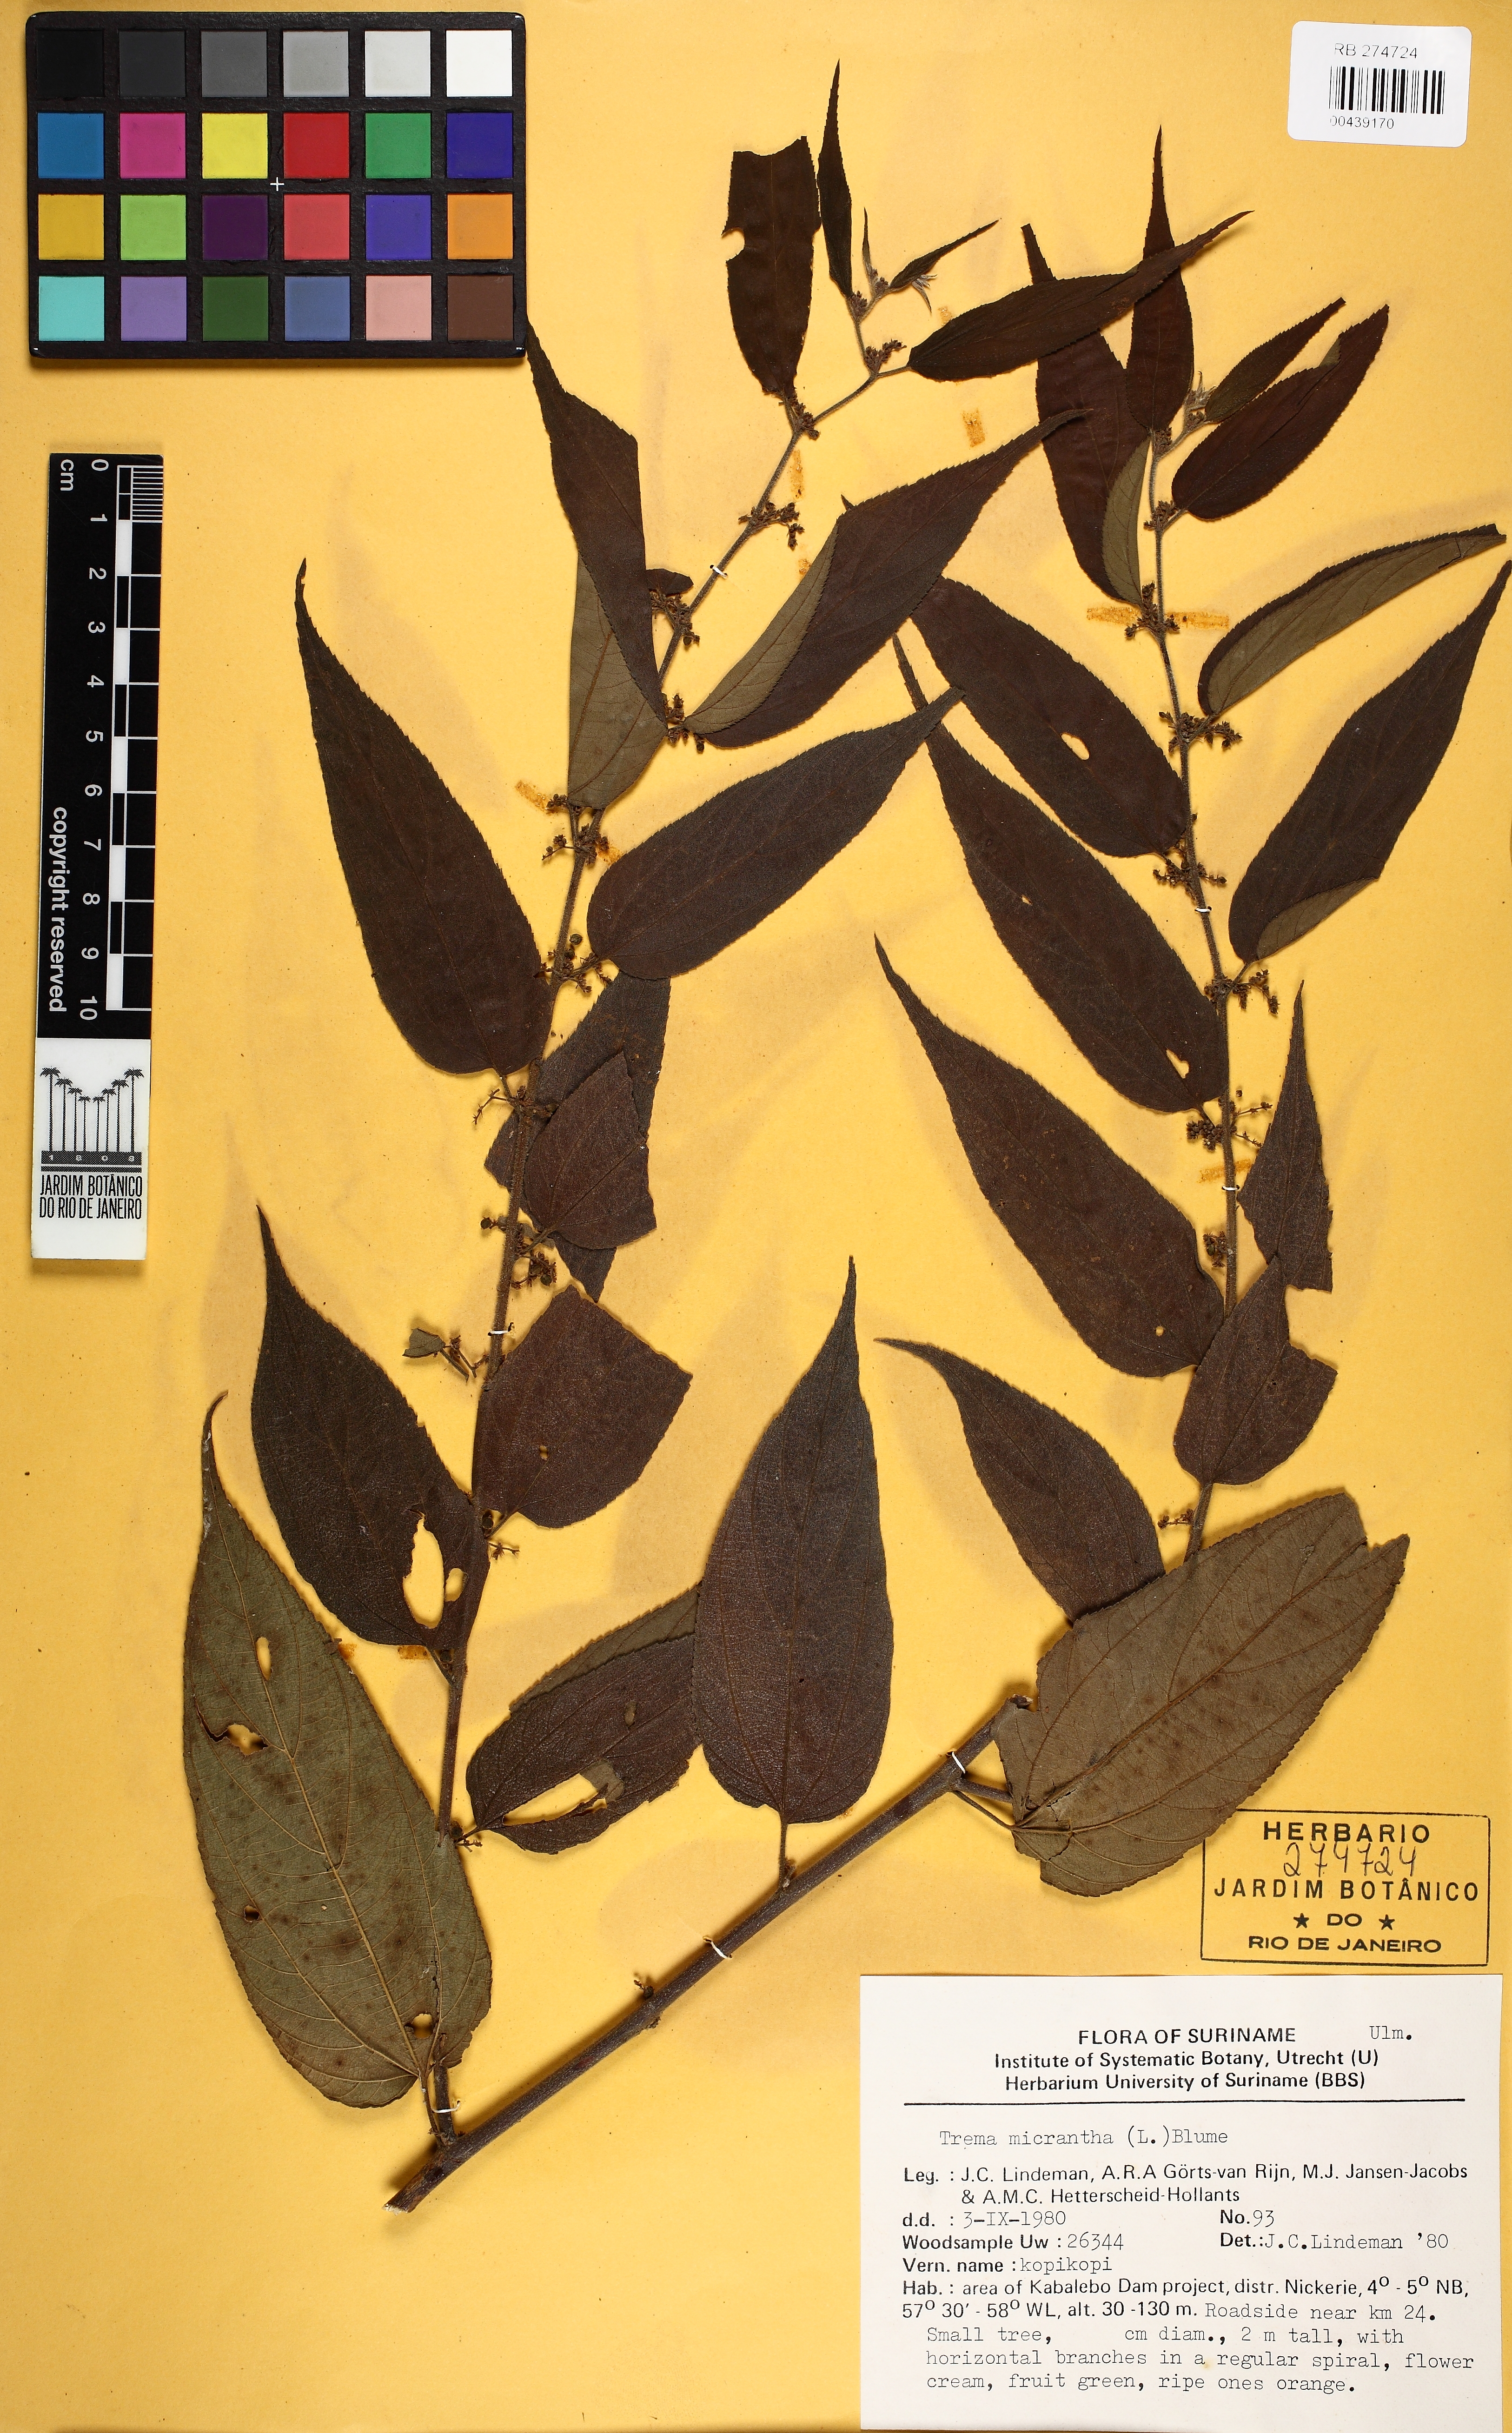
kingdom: Plantae
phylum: Tracheophyta
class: Magnoliopsida
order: Rosales
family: Cannabaceae
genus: Trema
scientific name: Trema micranthum
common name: Jamaican nettletree
